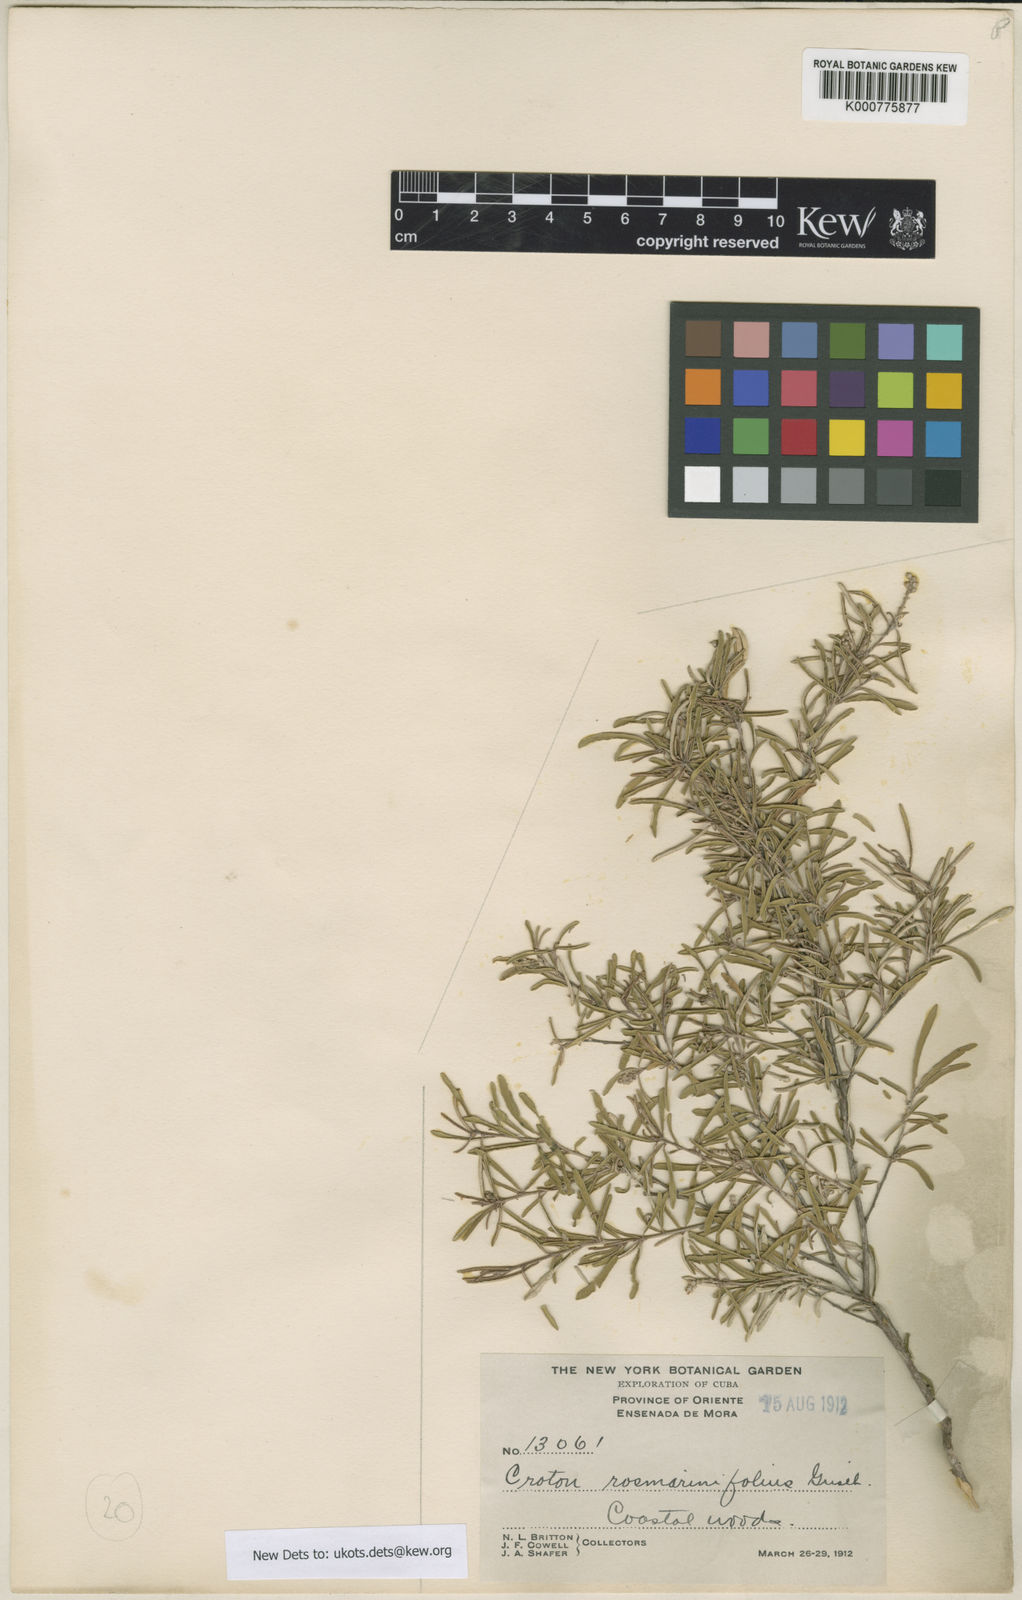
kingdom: Plantae
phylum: Tracheophyta
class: Magnoliopsida
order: Malpighiales
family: Euphorbiaceae
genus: Croton
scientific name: Croton
